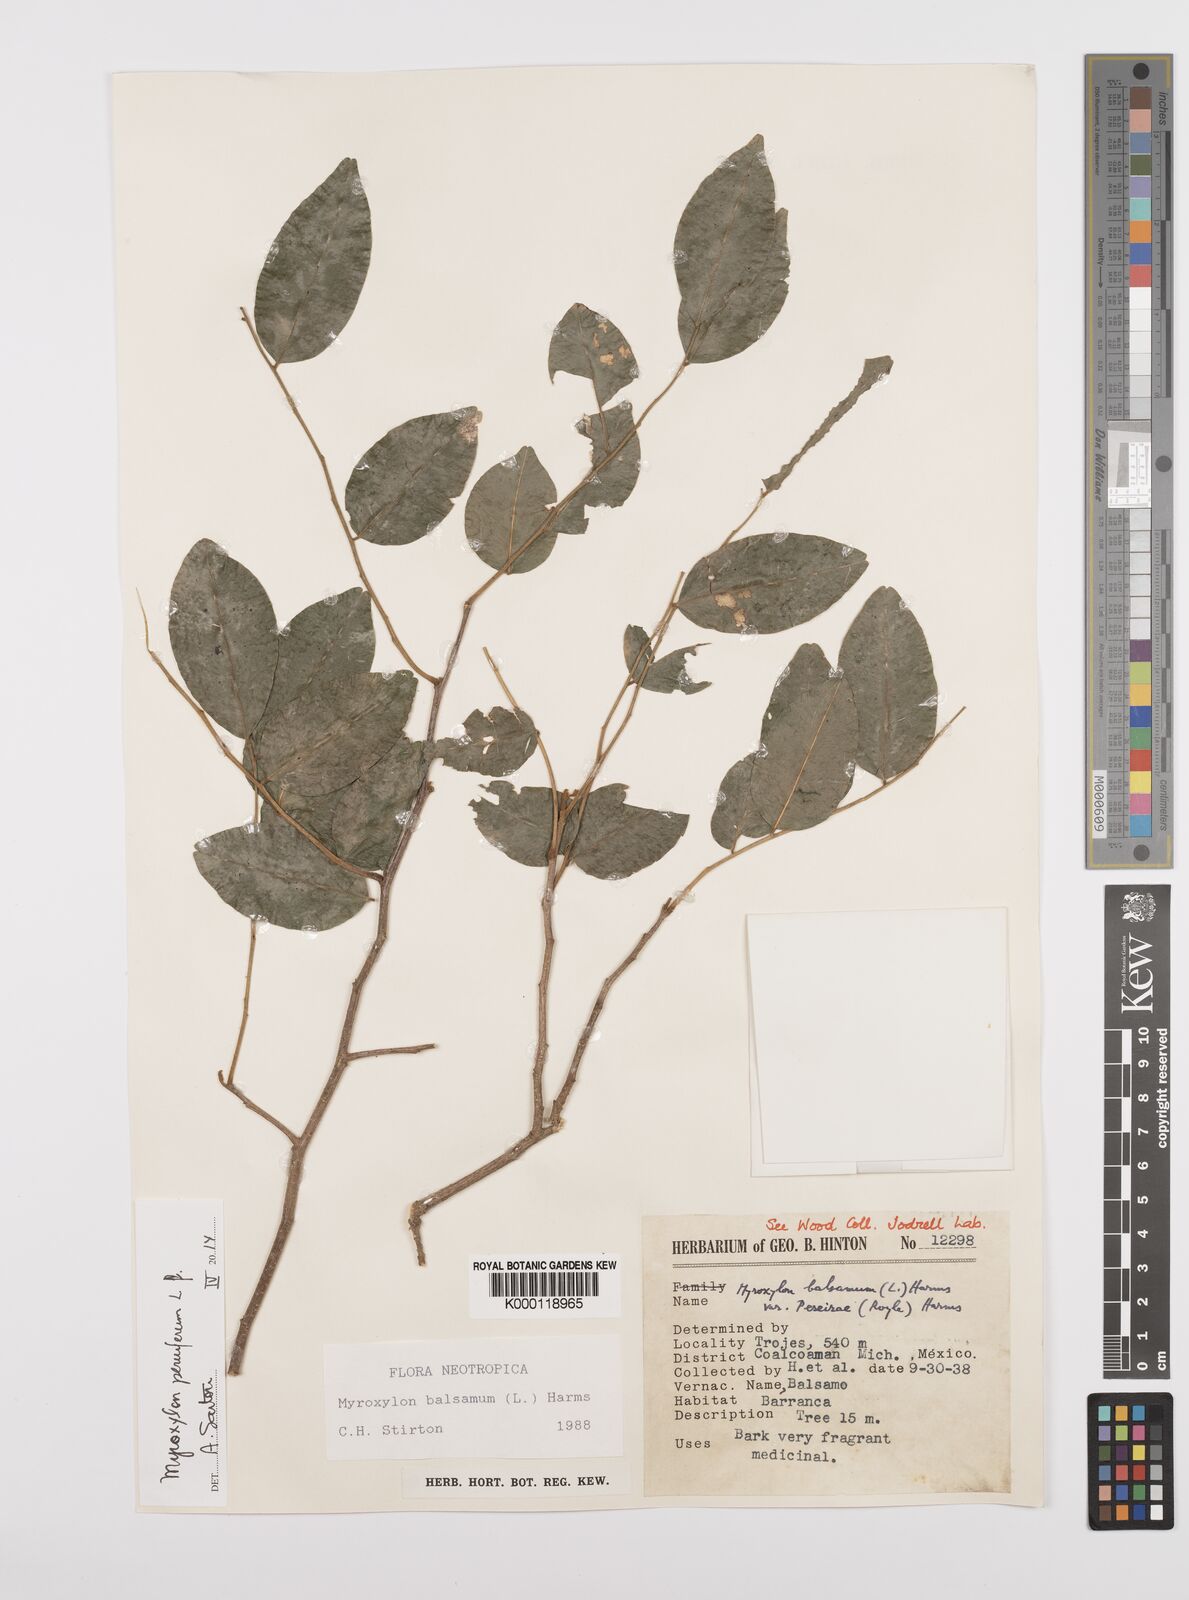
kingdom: Plantae
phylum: Tracheophyta
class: Magnoliopsida
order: Fabales
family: Fabaceae
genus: Myroxylon
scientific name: Myroxylon balsamum
